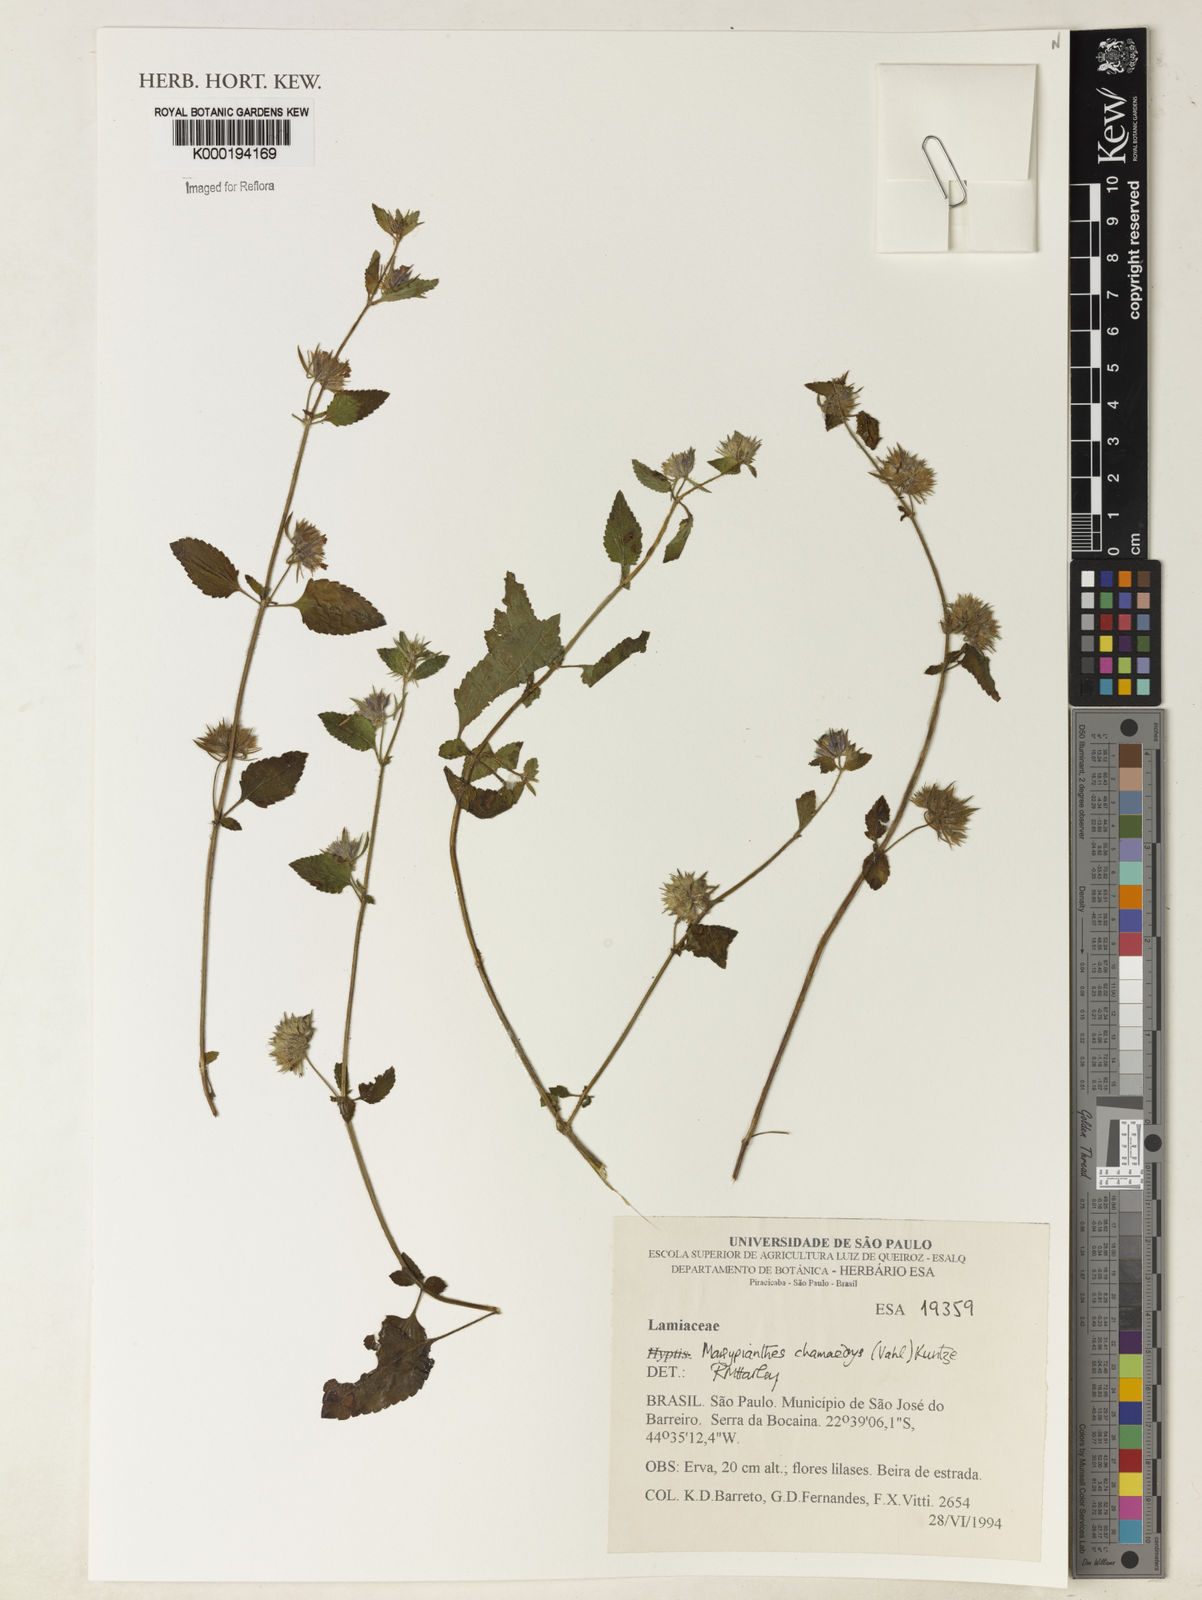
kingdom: Plantae
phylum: Tracheophyta
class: Magnoliopsida
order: Lamiales
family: Lamiaceae
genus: Marsypianthes
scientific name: Marsypianthes chamaedrys
